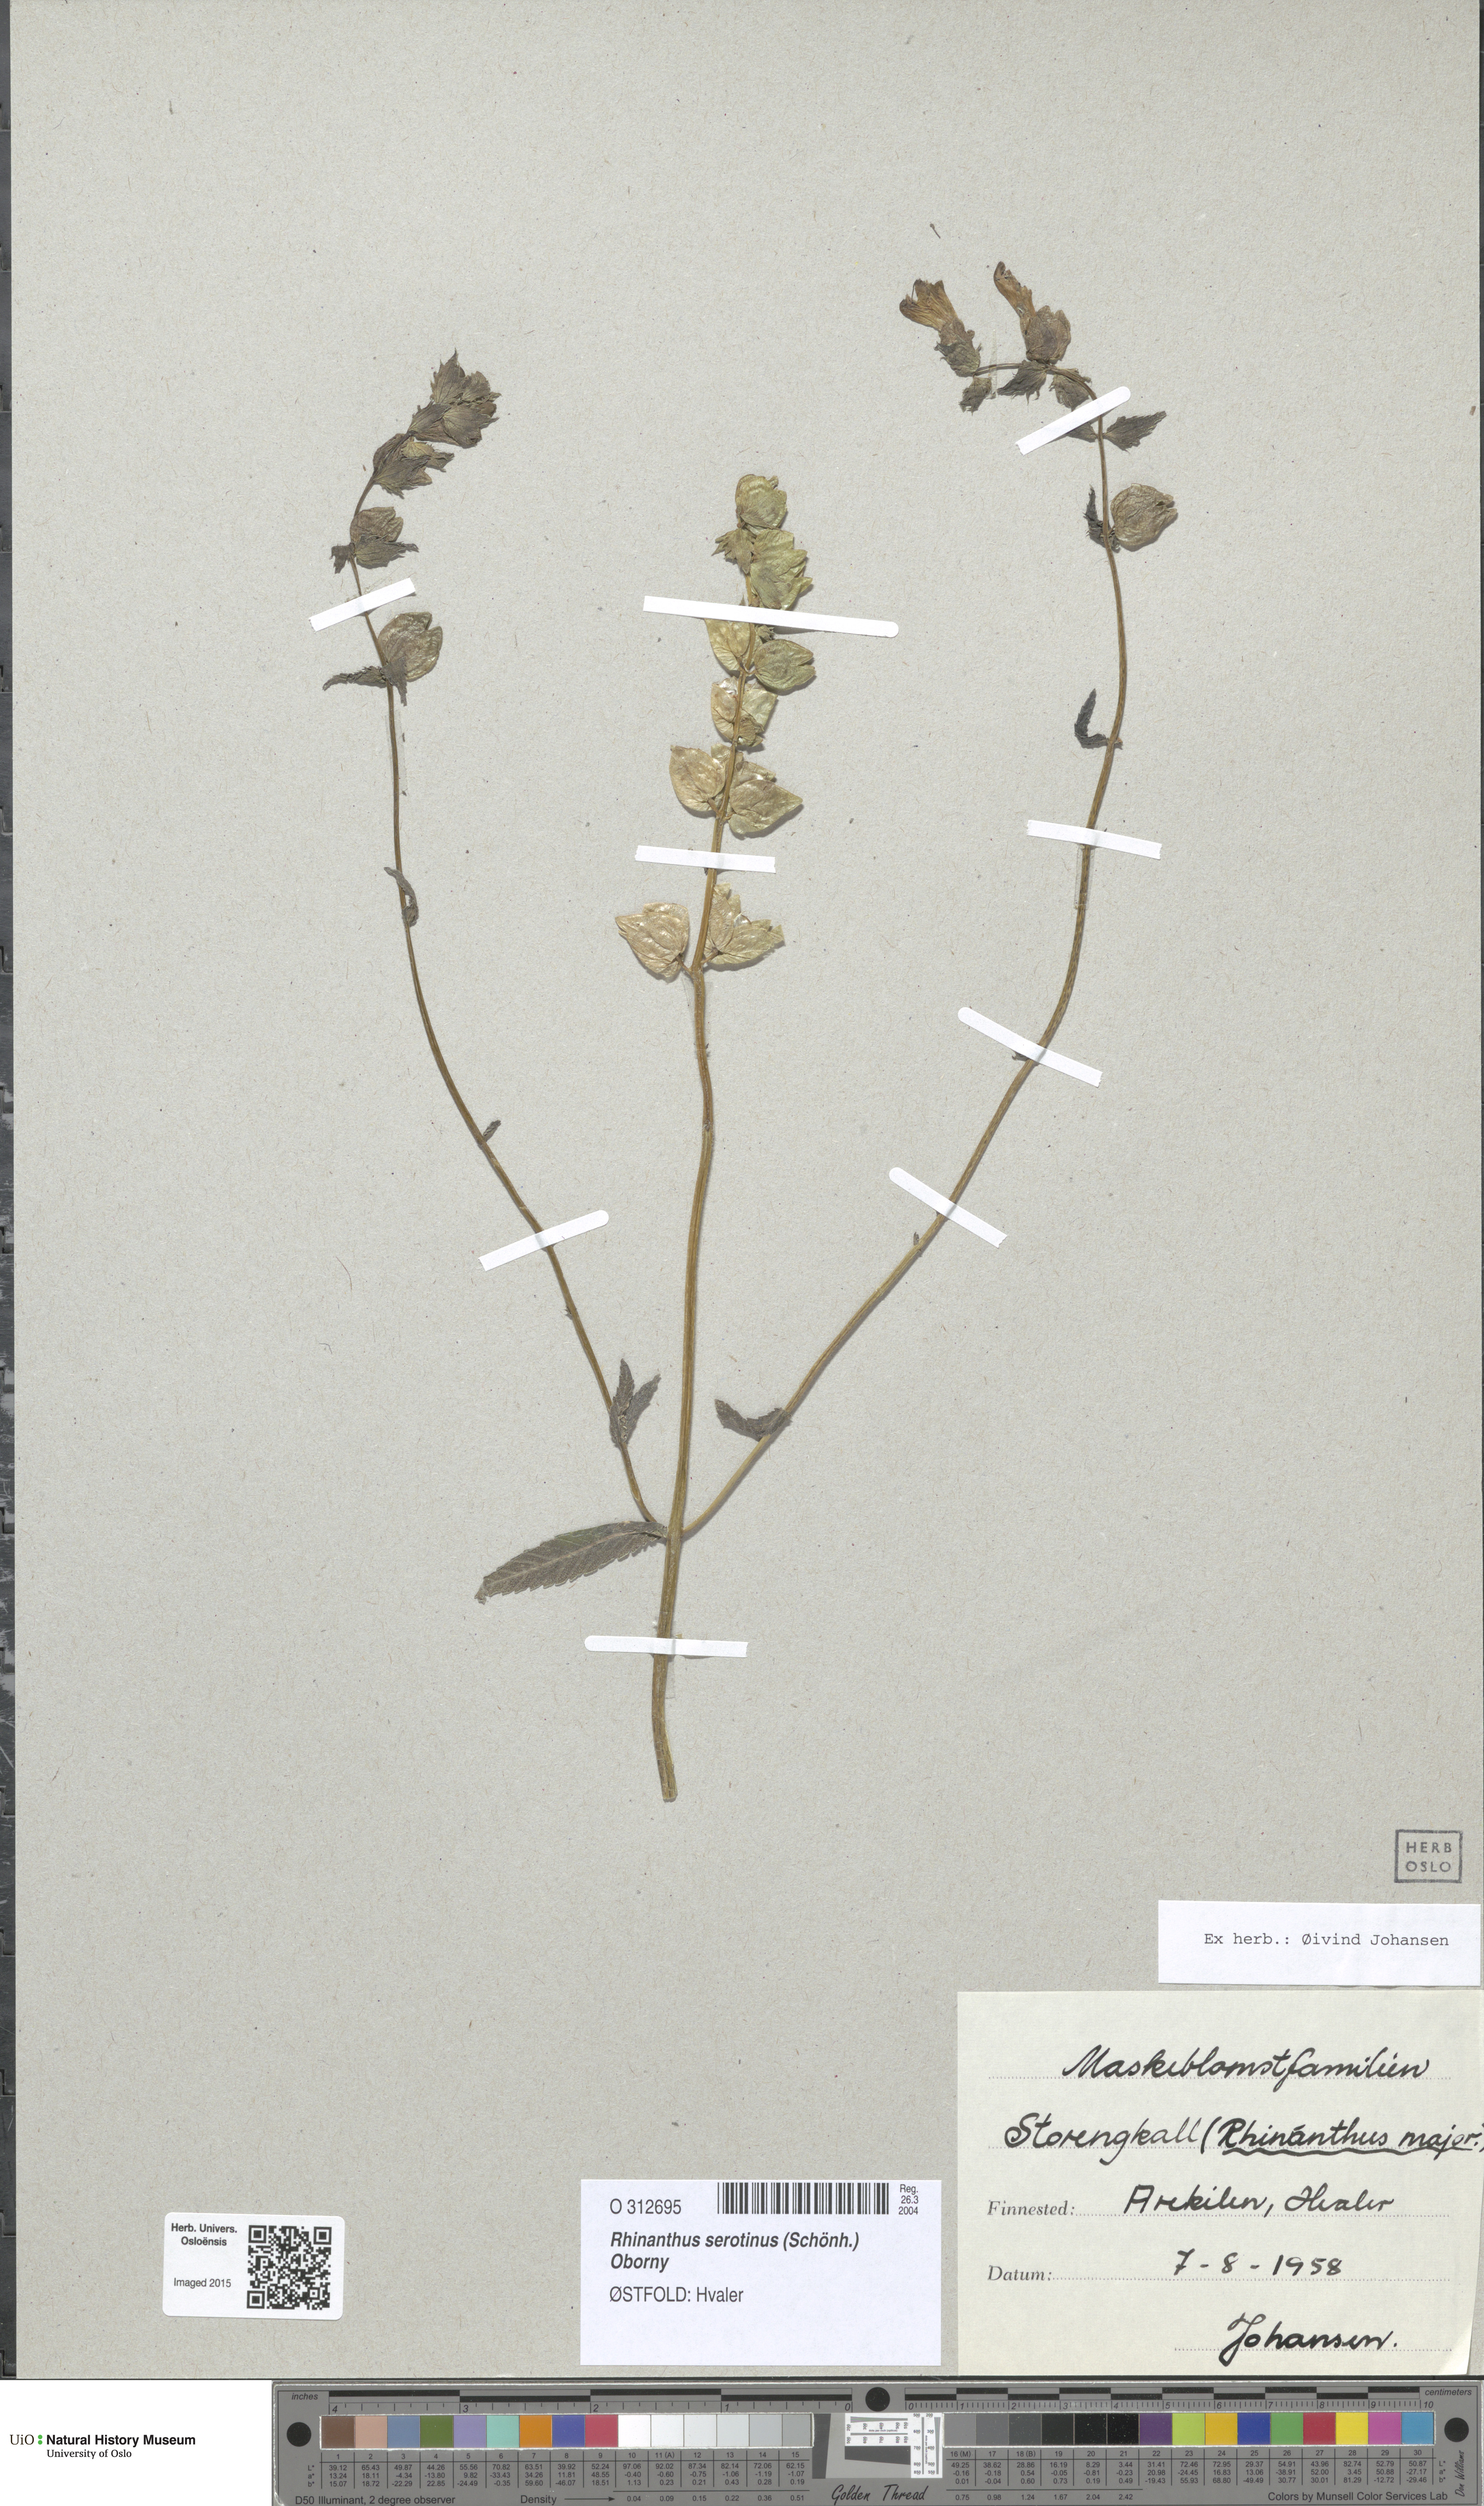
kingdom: Plantae
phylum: Tracheophyta
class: Magnoliopsida
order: Lamiales
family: Orobanchaceae
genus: Rhinanthus
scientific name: Rhinanthus serotinus
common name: Late-flowering yellow rattle
